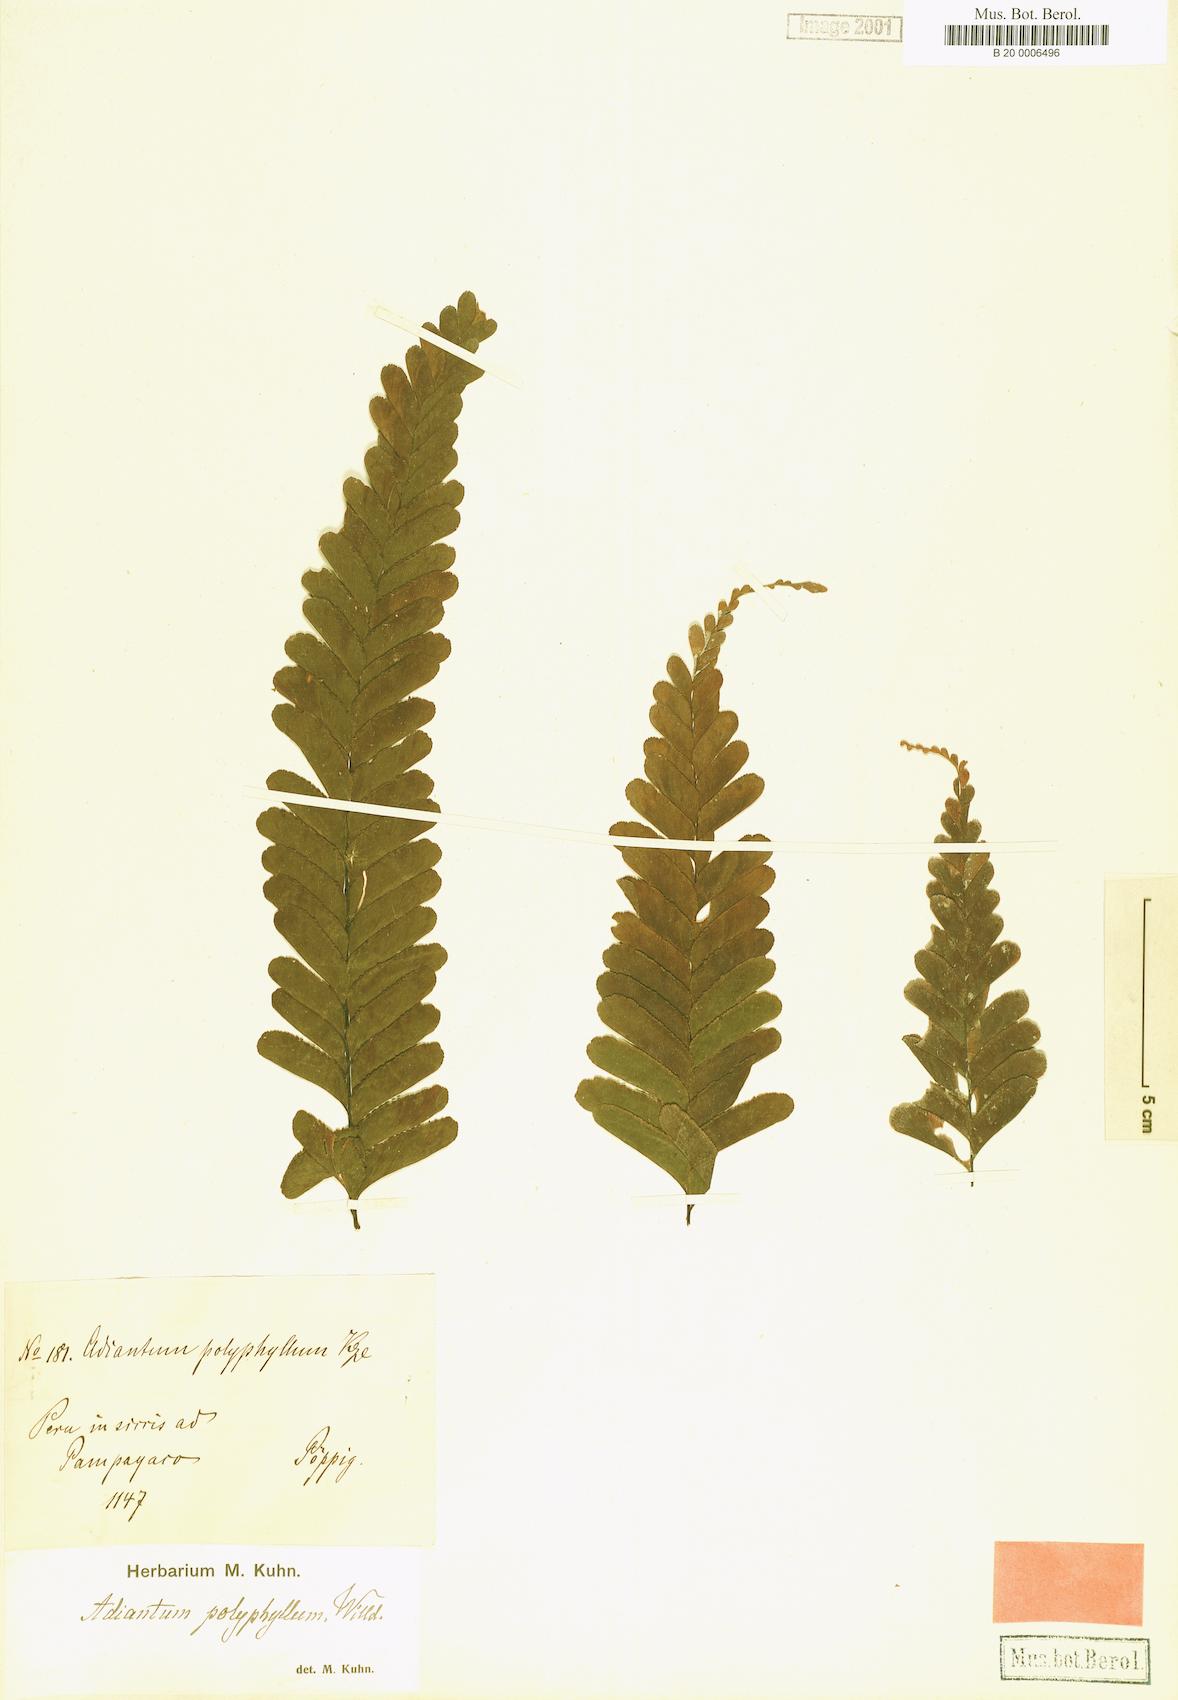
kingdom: Plantae
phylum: Tracheophyta
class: Polypodiopsida
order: Polypodiales
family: Pteridaceae
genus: Adiantum
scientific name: Adiantum macrocladum
